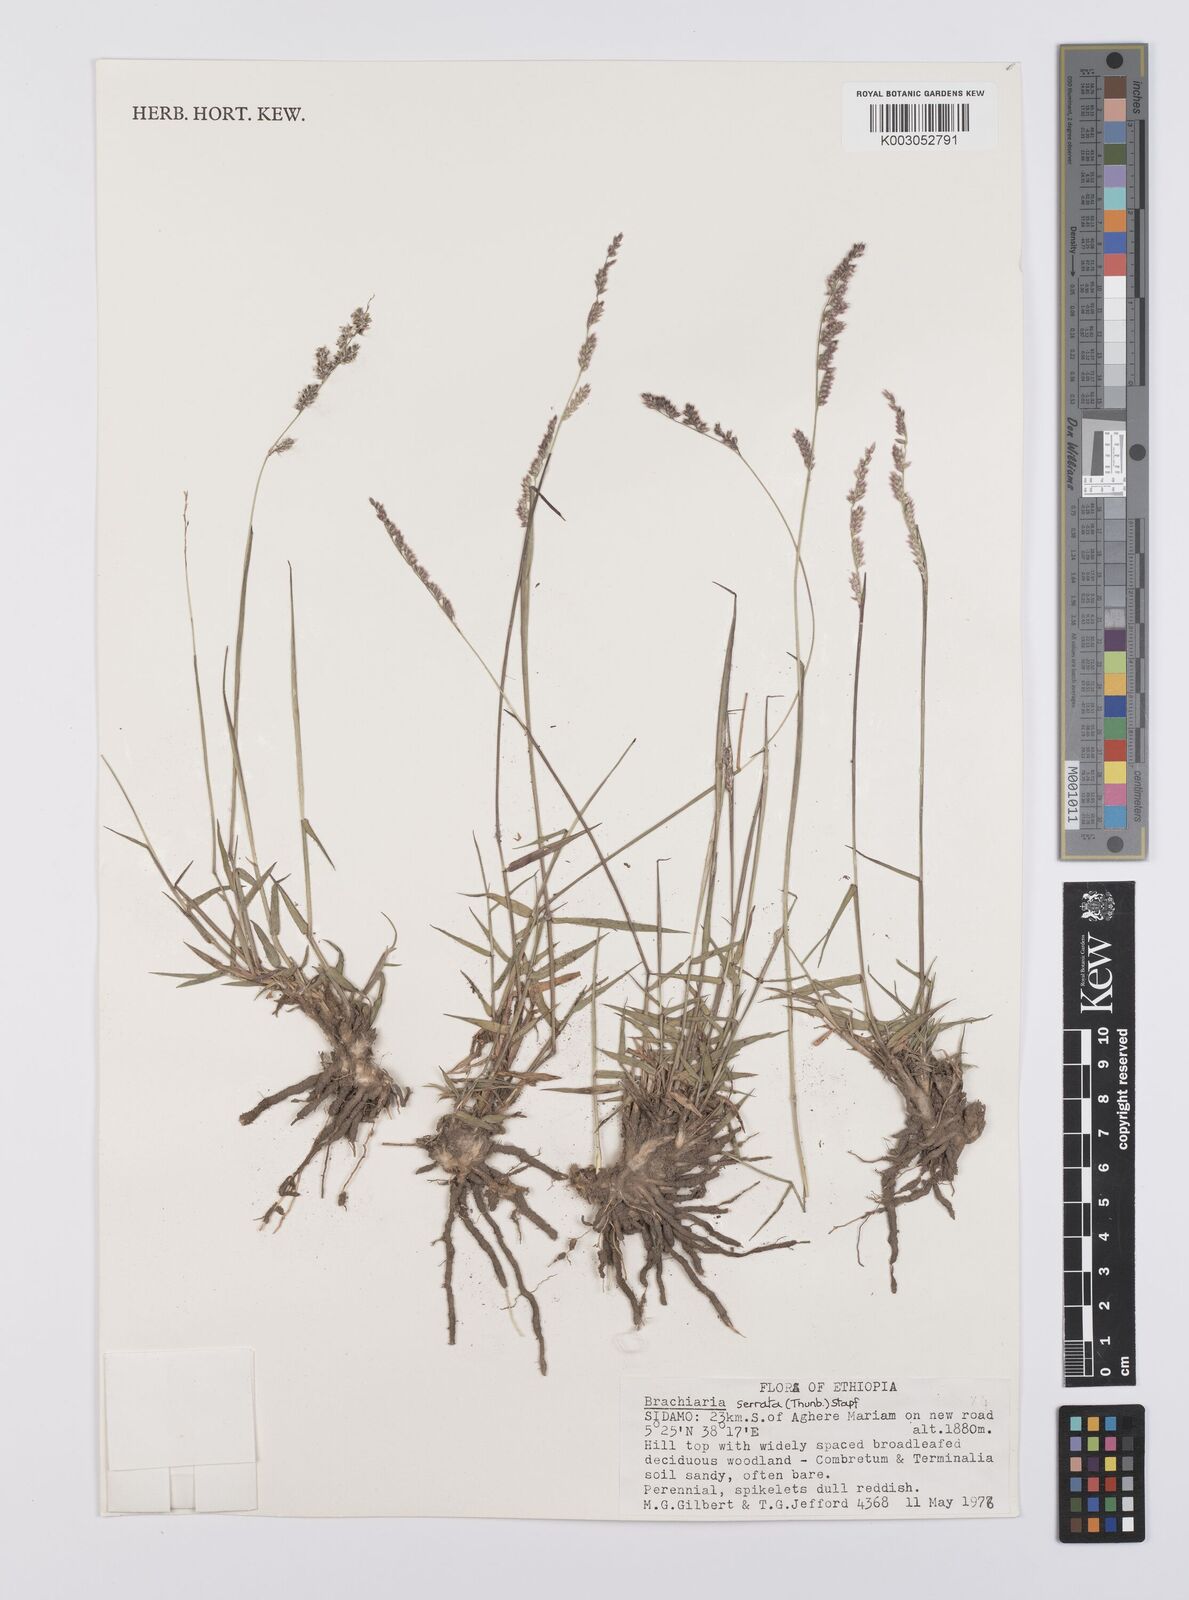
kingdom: Plantae
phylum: Tracheophyta
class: Liliopsida
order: Poales
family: Poaceae
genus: Urochloa
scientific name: Urochloa serrata
